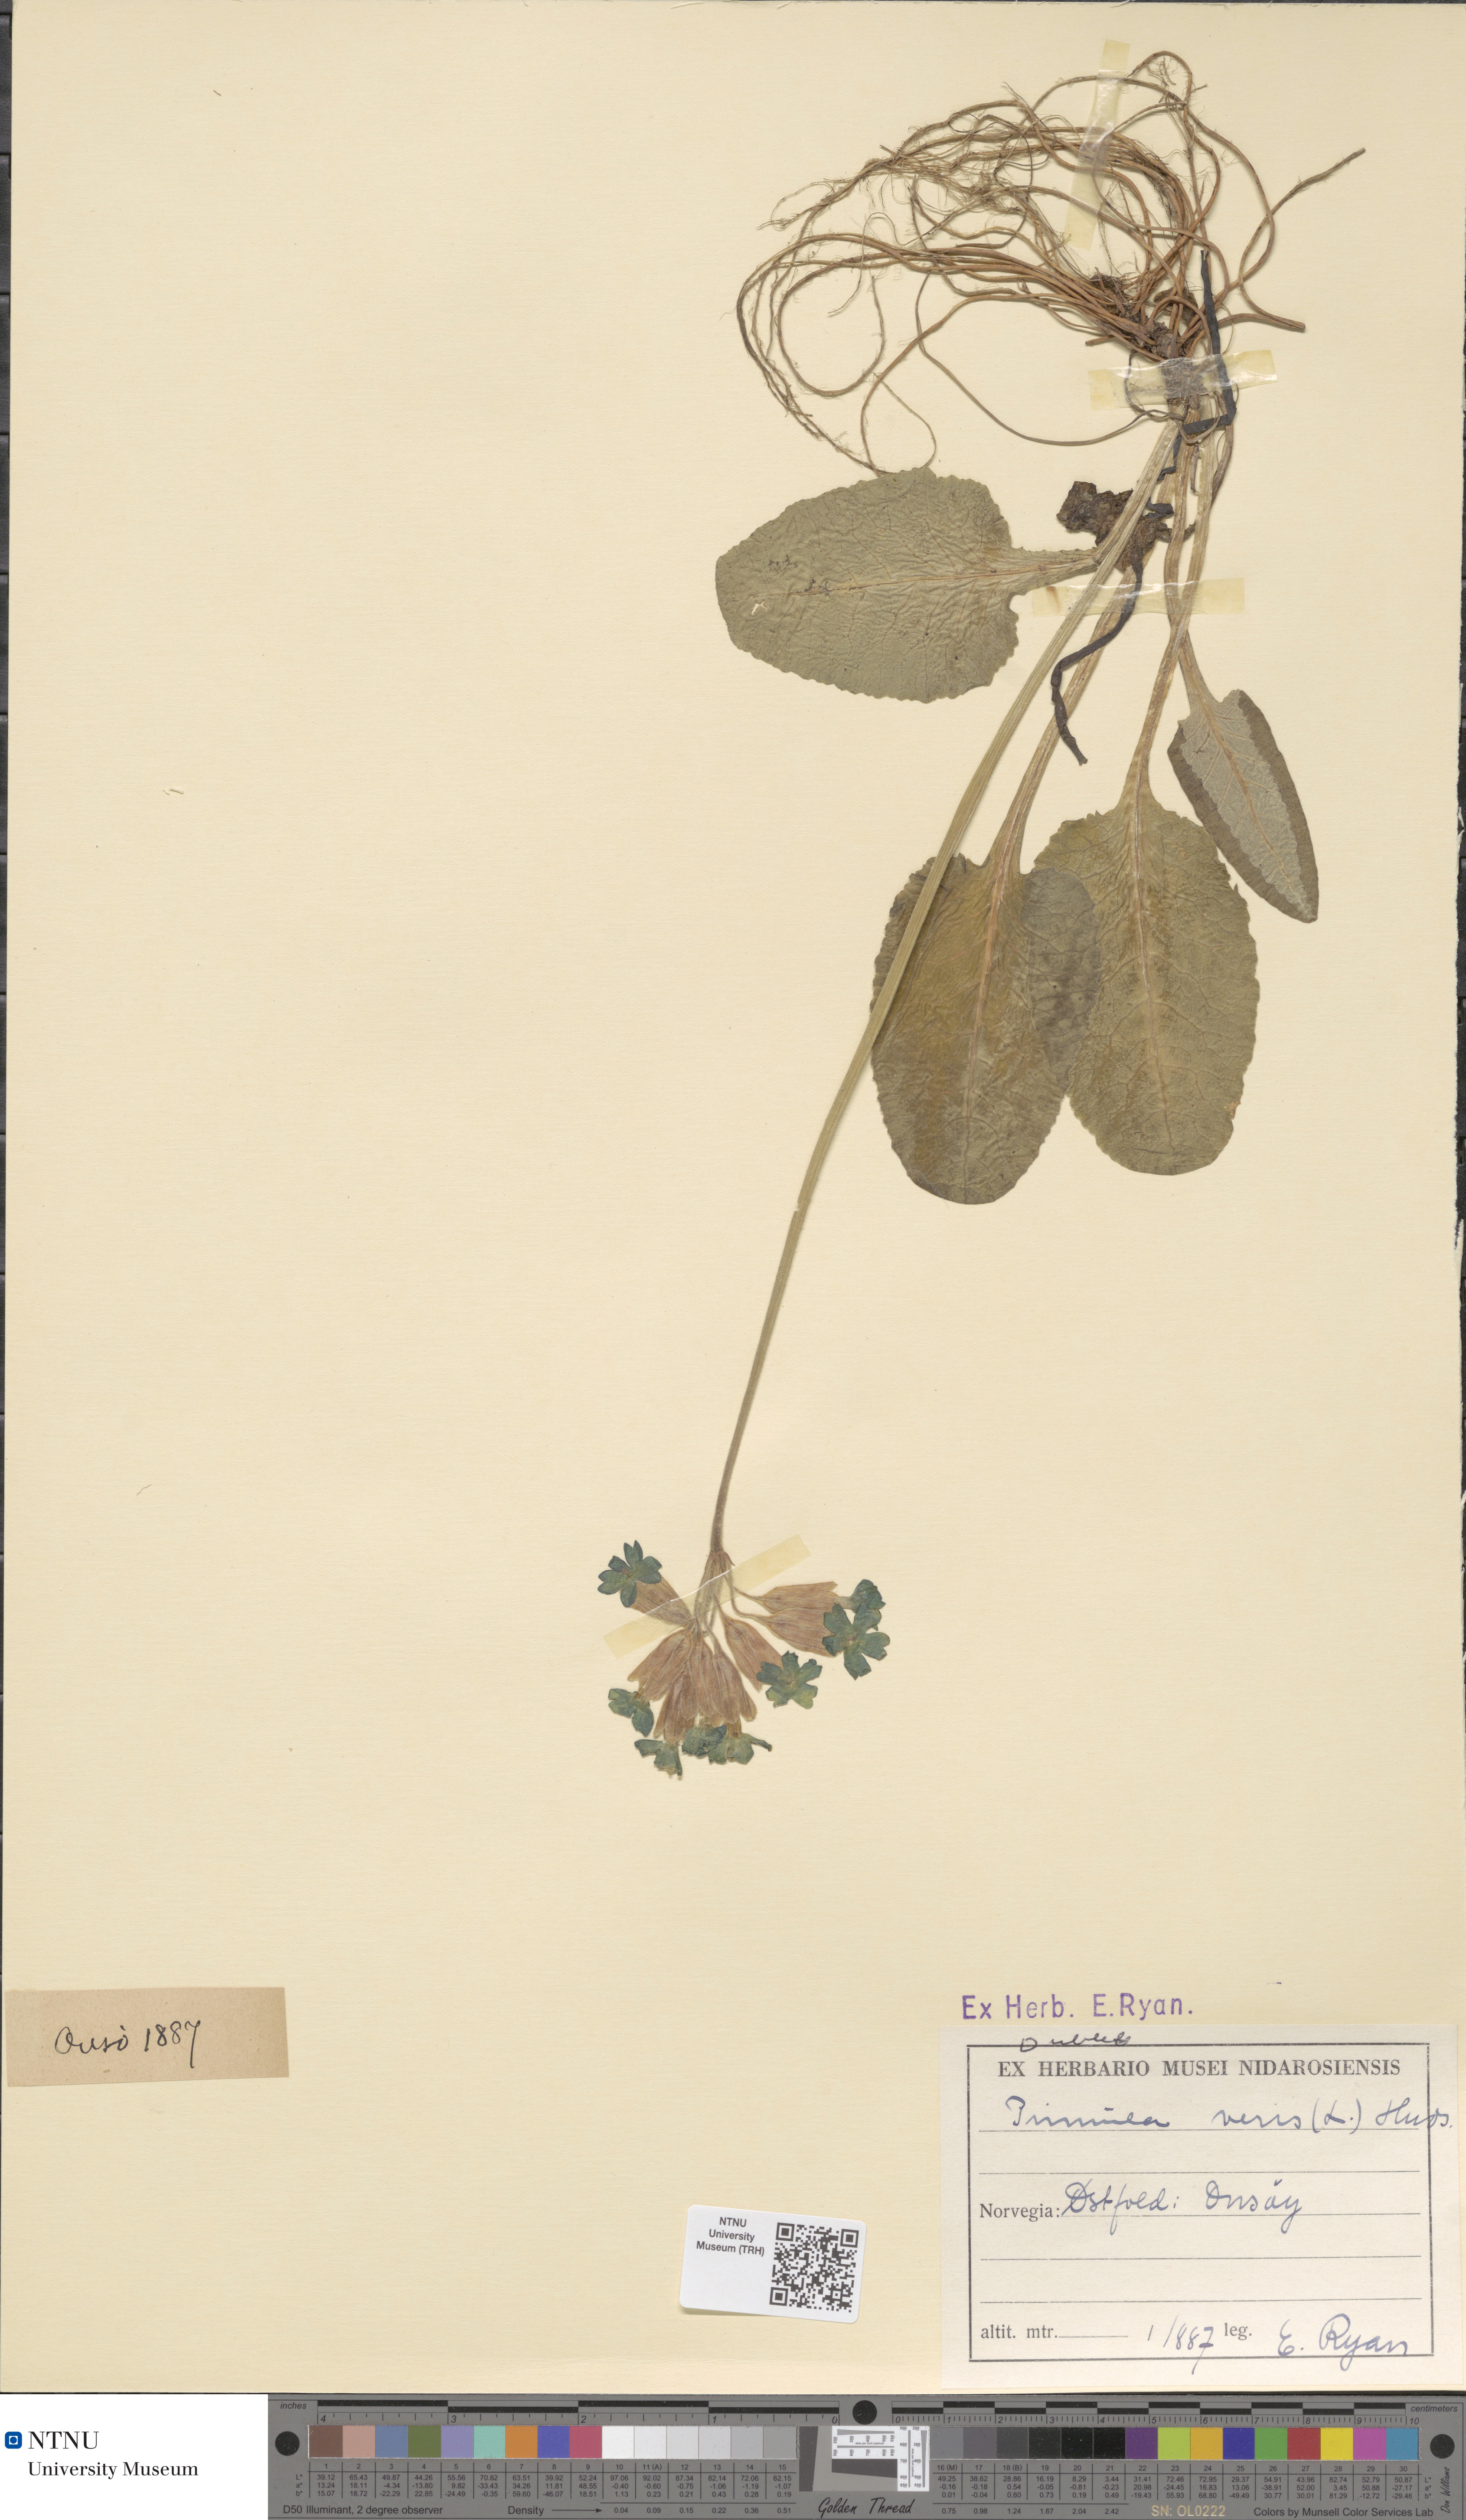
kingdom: Plantae
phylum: Tracheophyta
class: Magnoliopsida
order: Ericales
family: Primulaceae
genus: Primula
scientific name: Primula veris
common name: Cowslip
